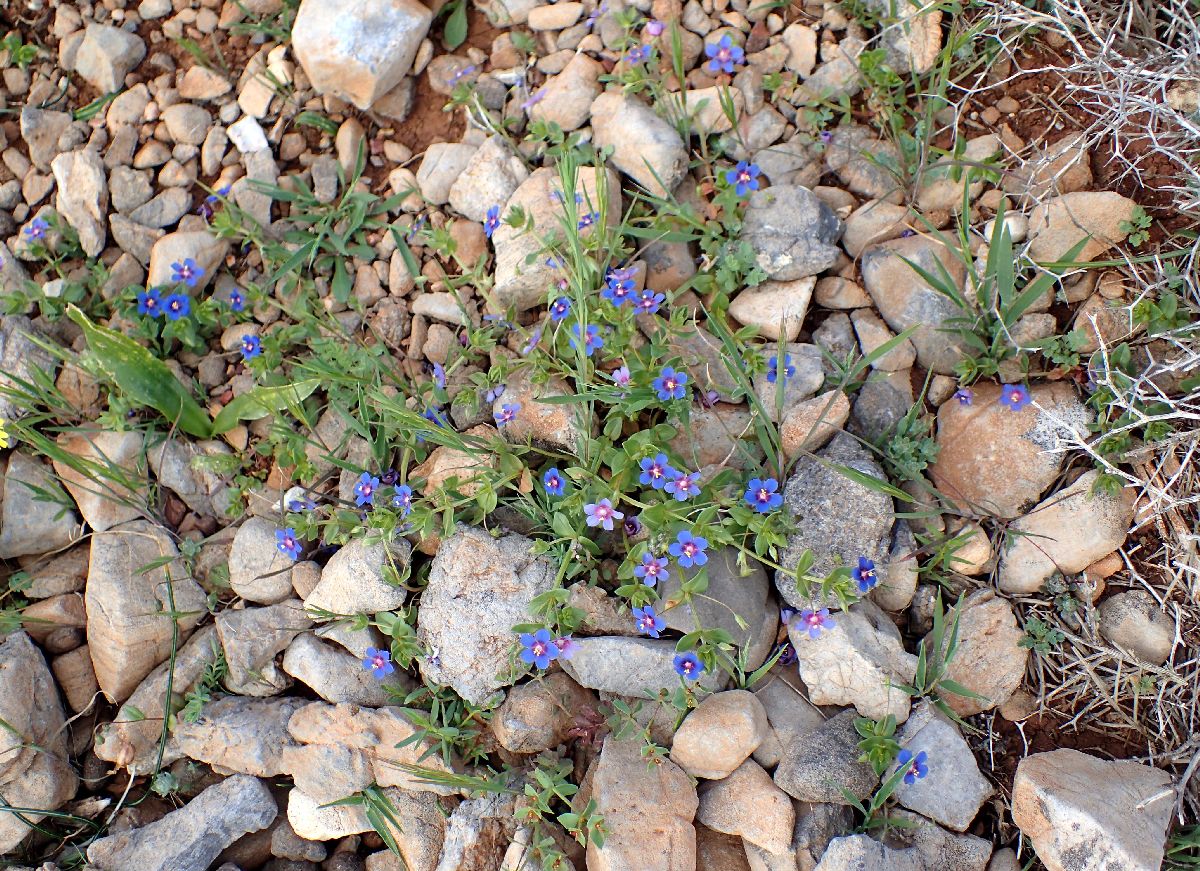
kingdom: Plantae
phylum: Tracheophyta
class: Magnoliopsida
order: Ericales
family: Primulaceae
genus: Lysimachia
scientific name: Lysimachia arvensis
